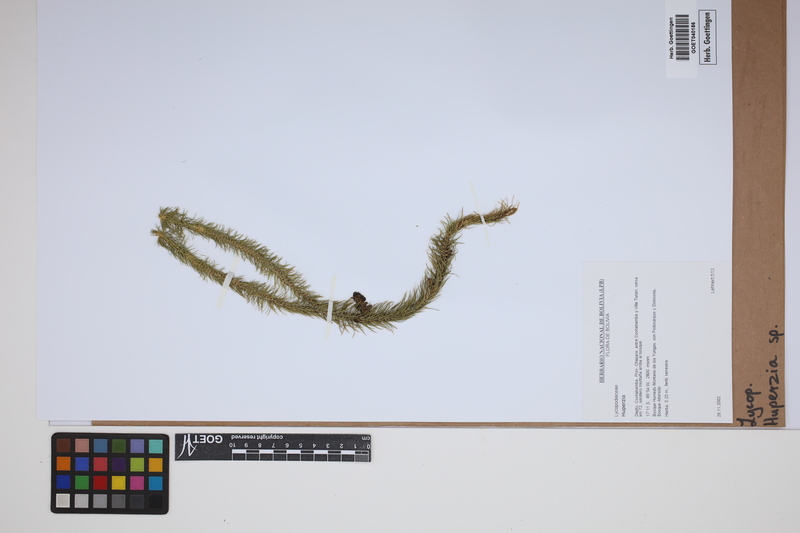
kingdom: Plantae
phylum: Tracheophyta
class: Lycopodiopsida
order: Lycopodiales
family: Lycopodiaceae
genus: Phlegmariurus
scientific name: Phlegmariurus
